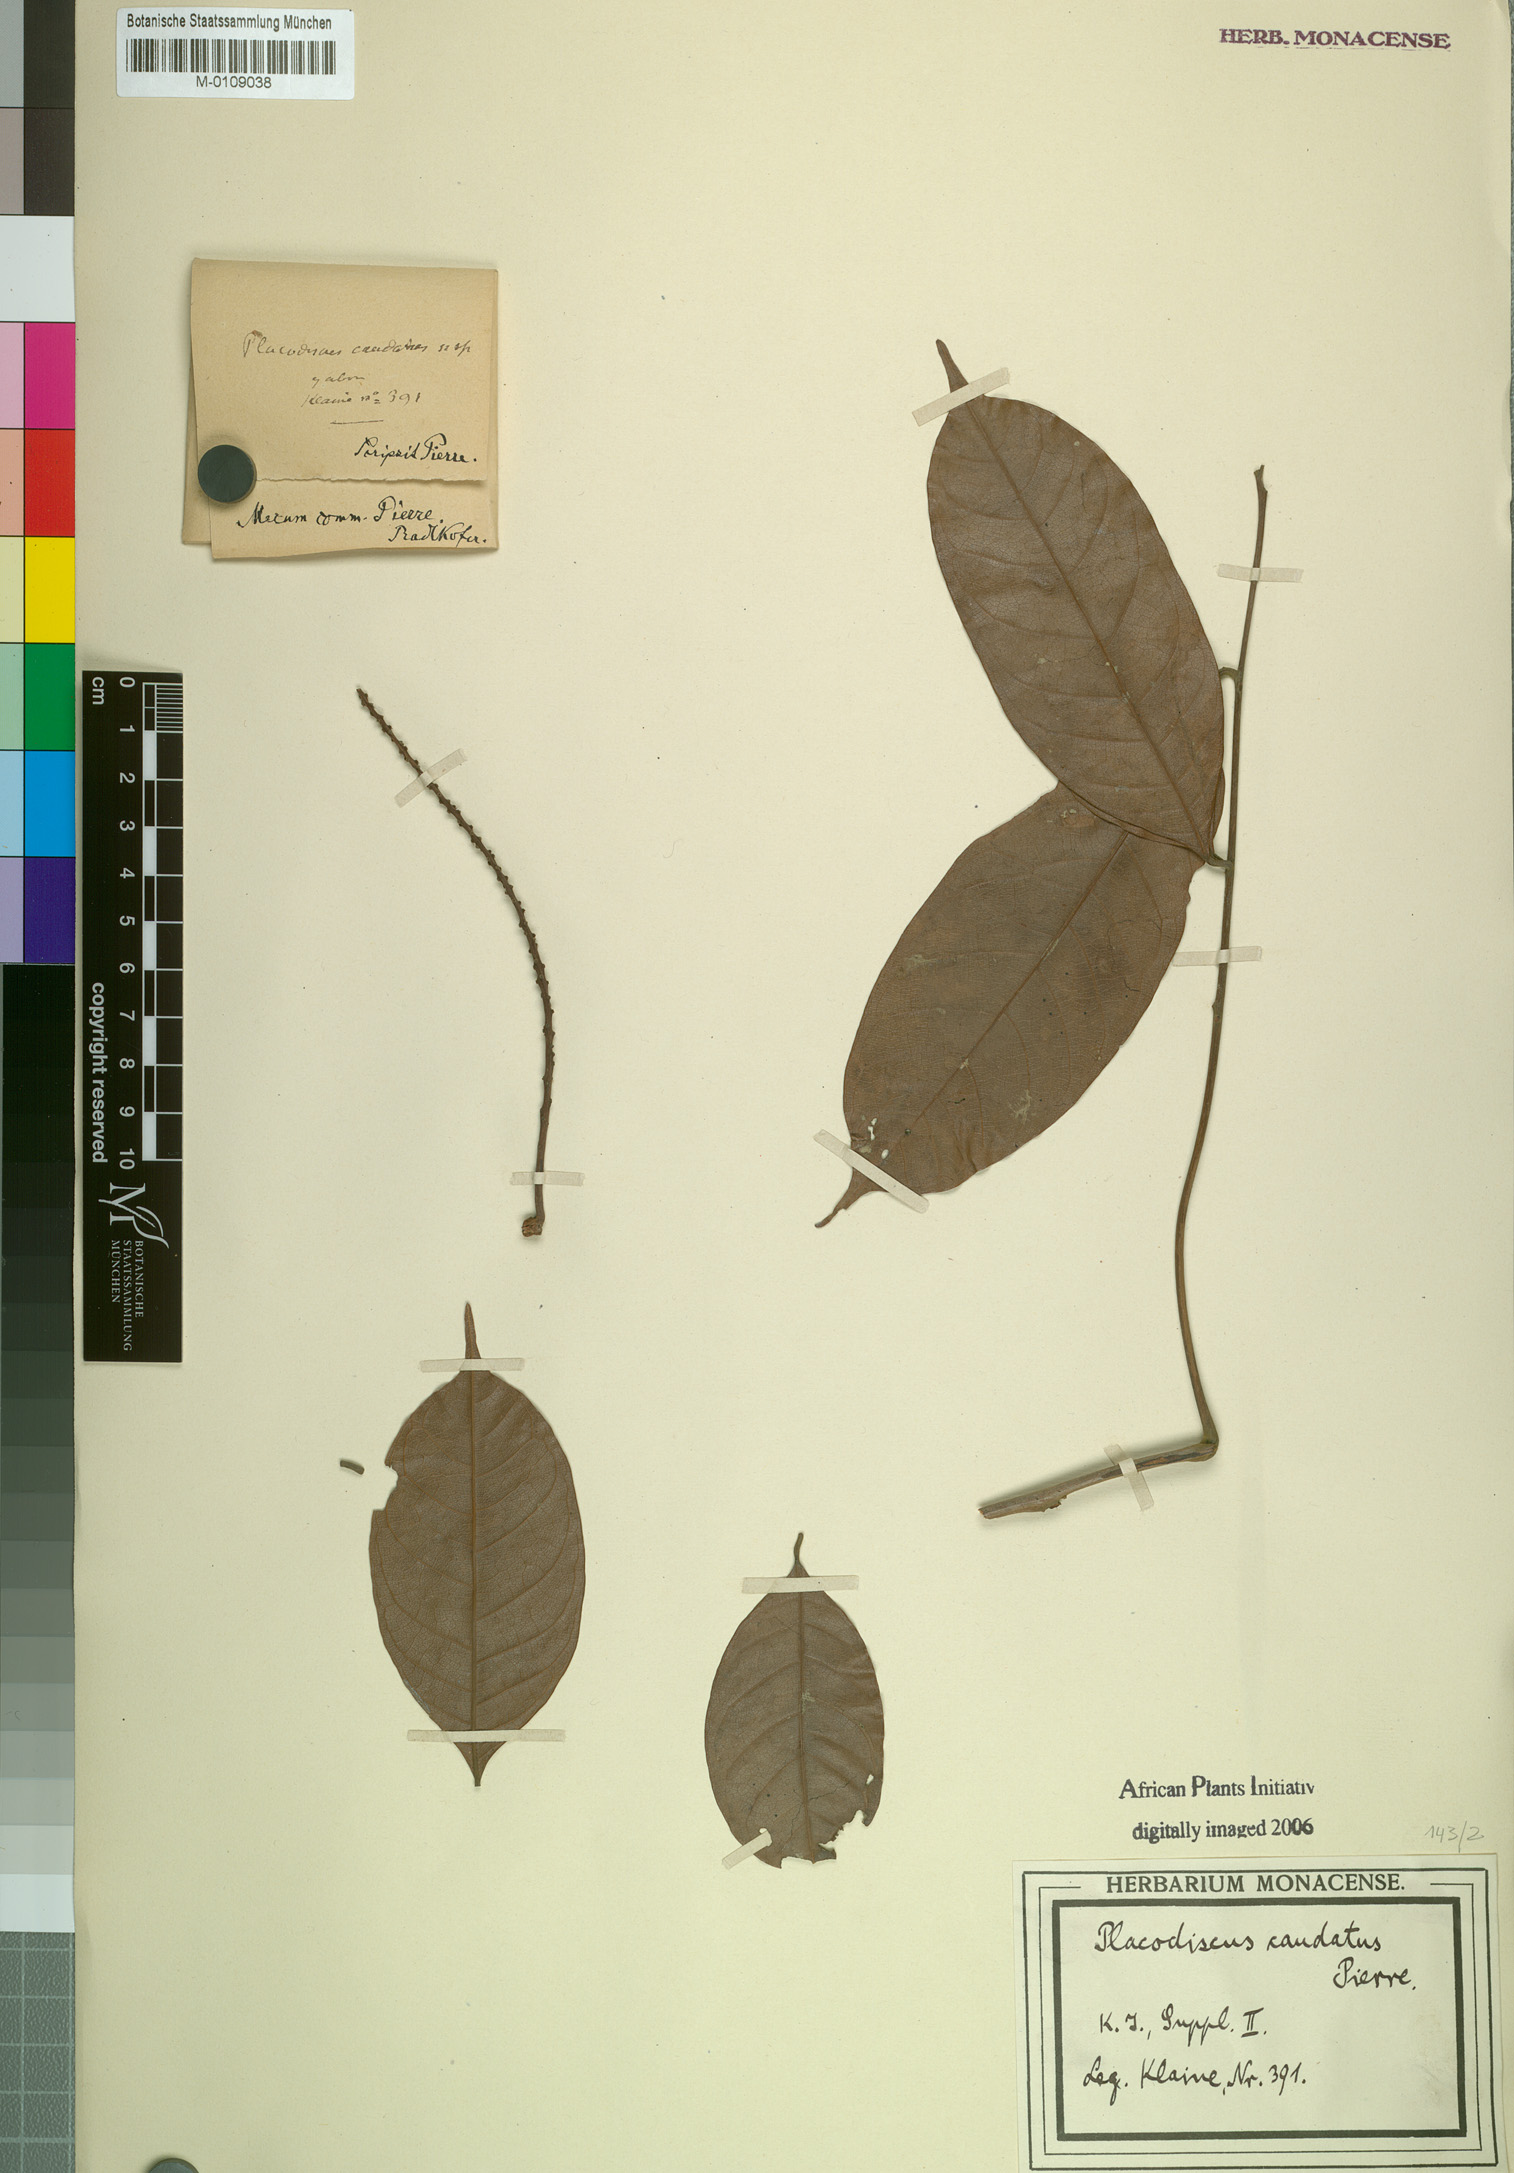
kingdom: Plantae
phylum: Tracheophyta
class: Magnoliopsida
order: Sapindales
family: Sapindaceae
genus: Placodiscus
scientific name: Placodiscus caudatus
